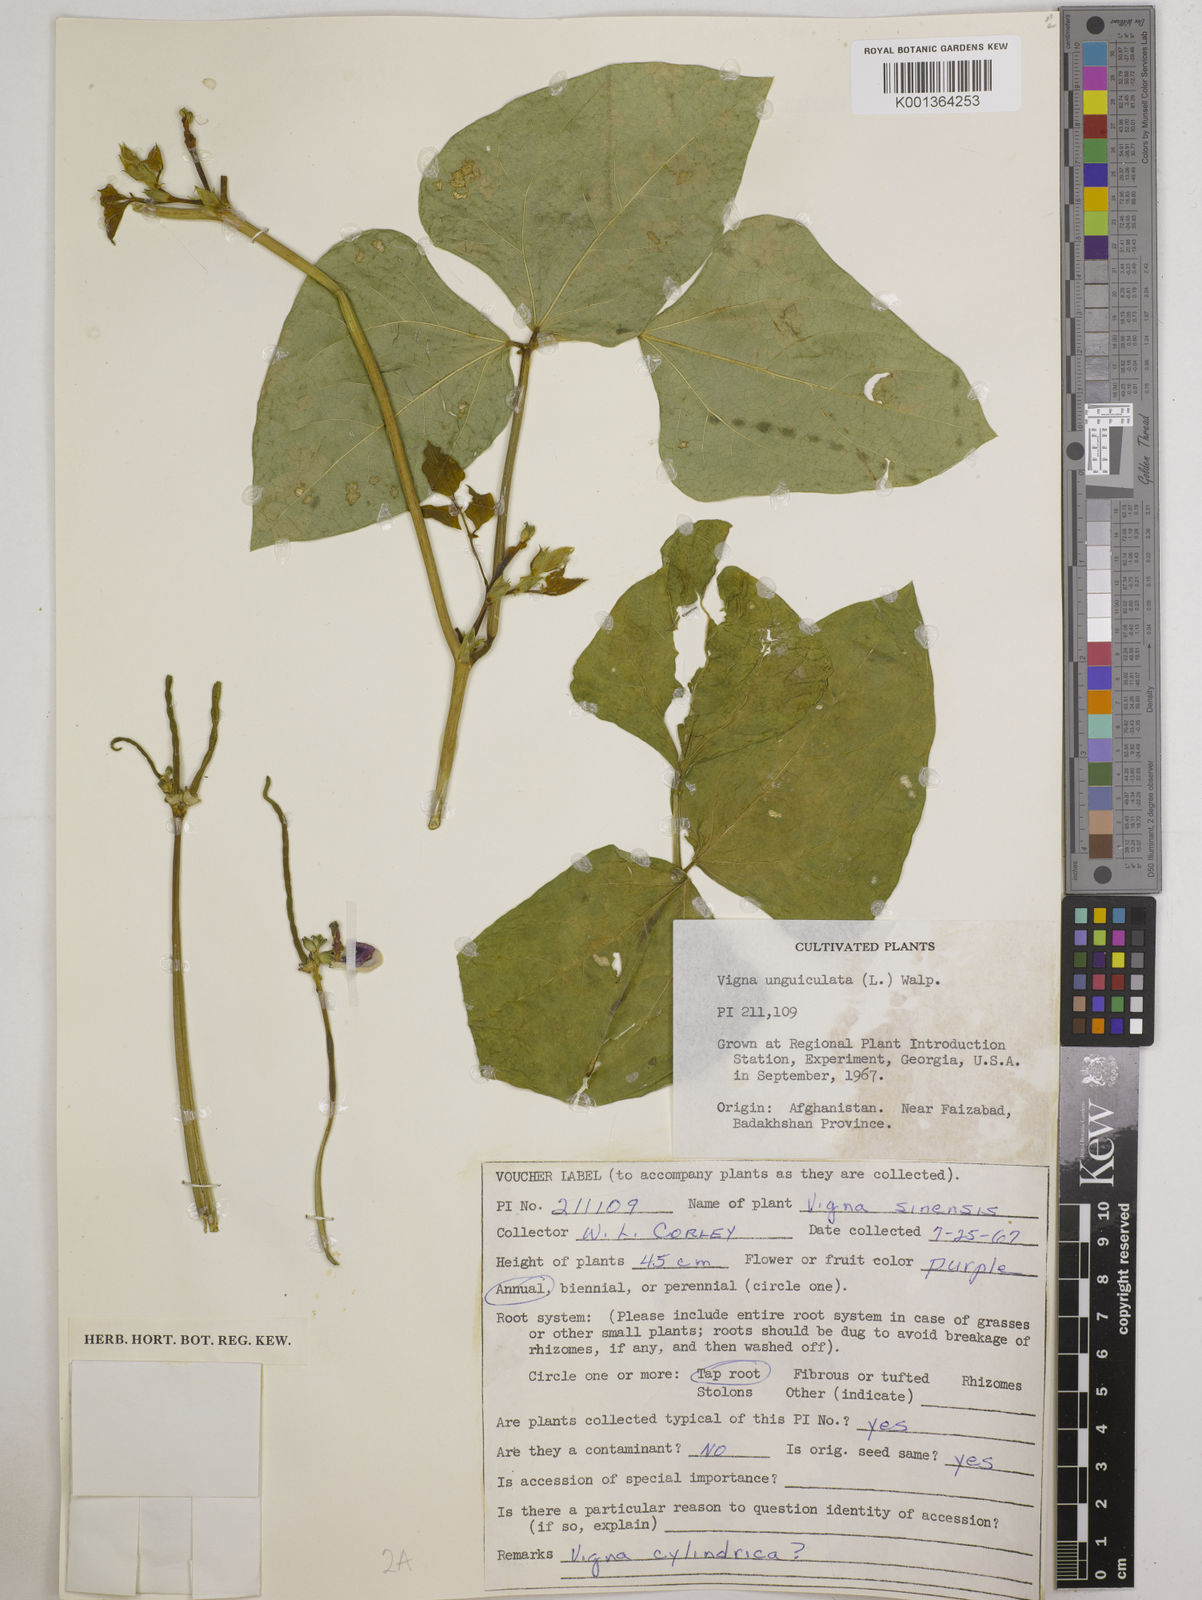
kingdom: Plantae
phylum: Tracheophyta
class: Magnoliopsida
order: Fabales
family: Fabaceae
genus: Vigna
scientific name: Vigna
